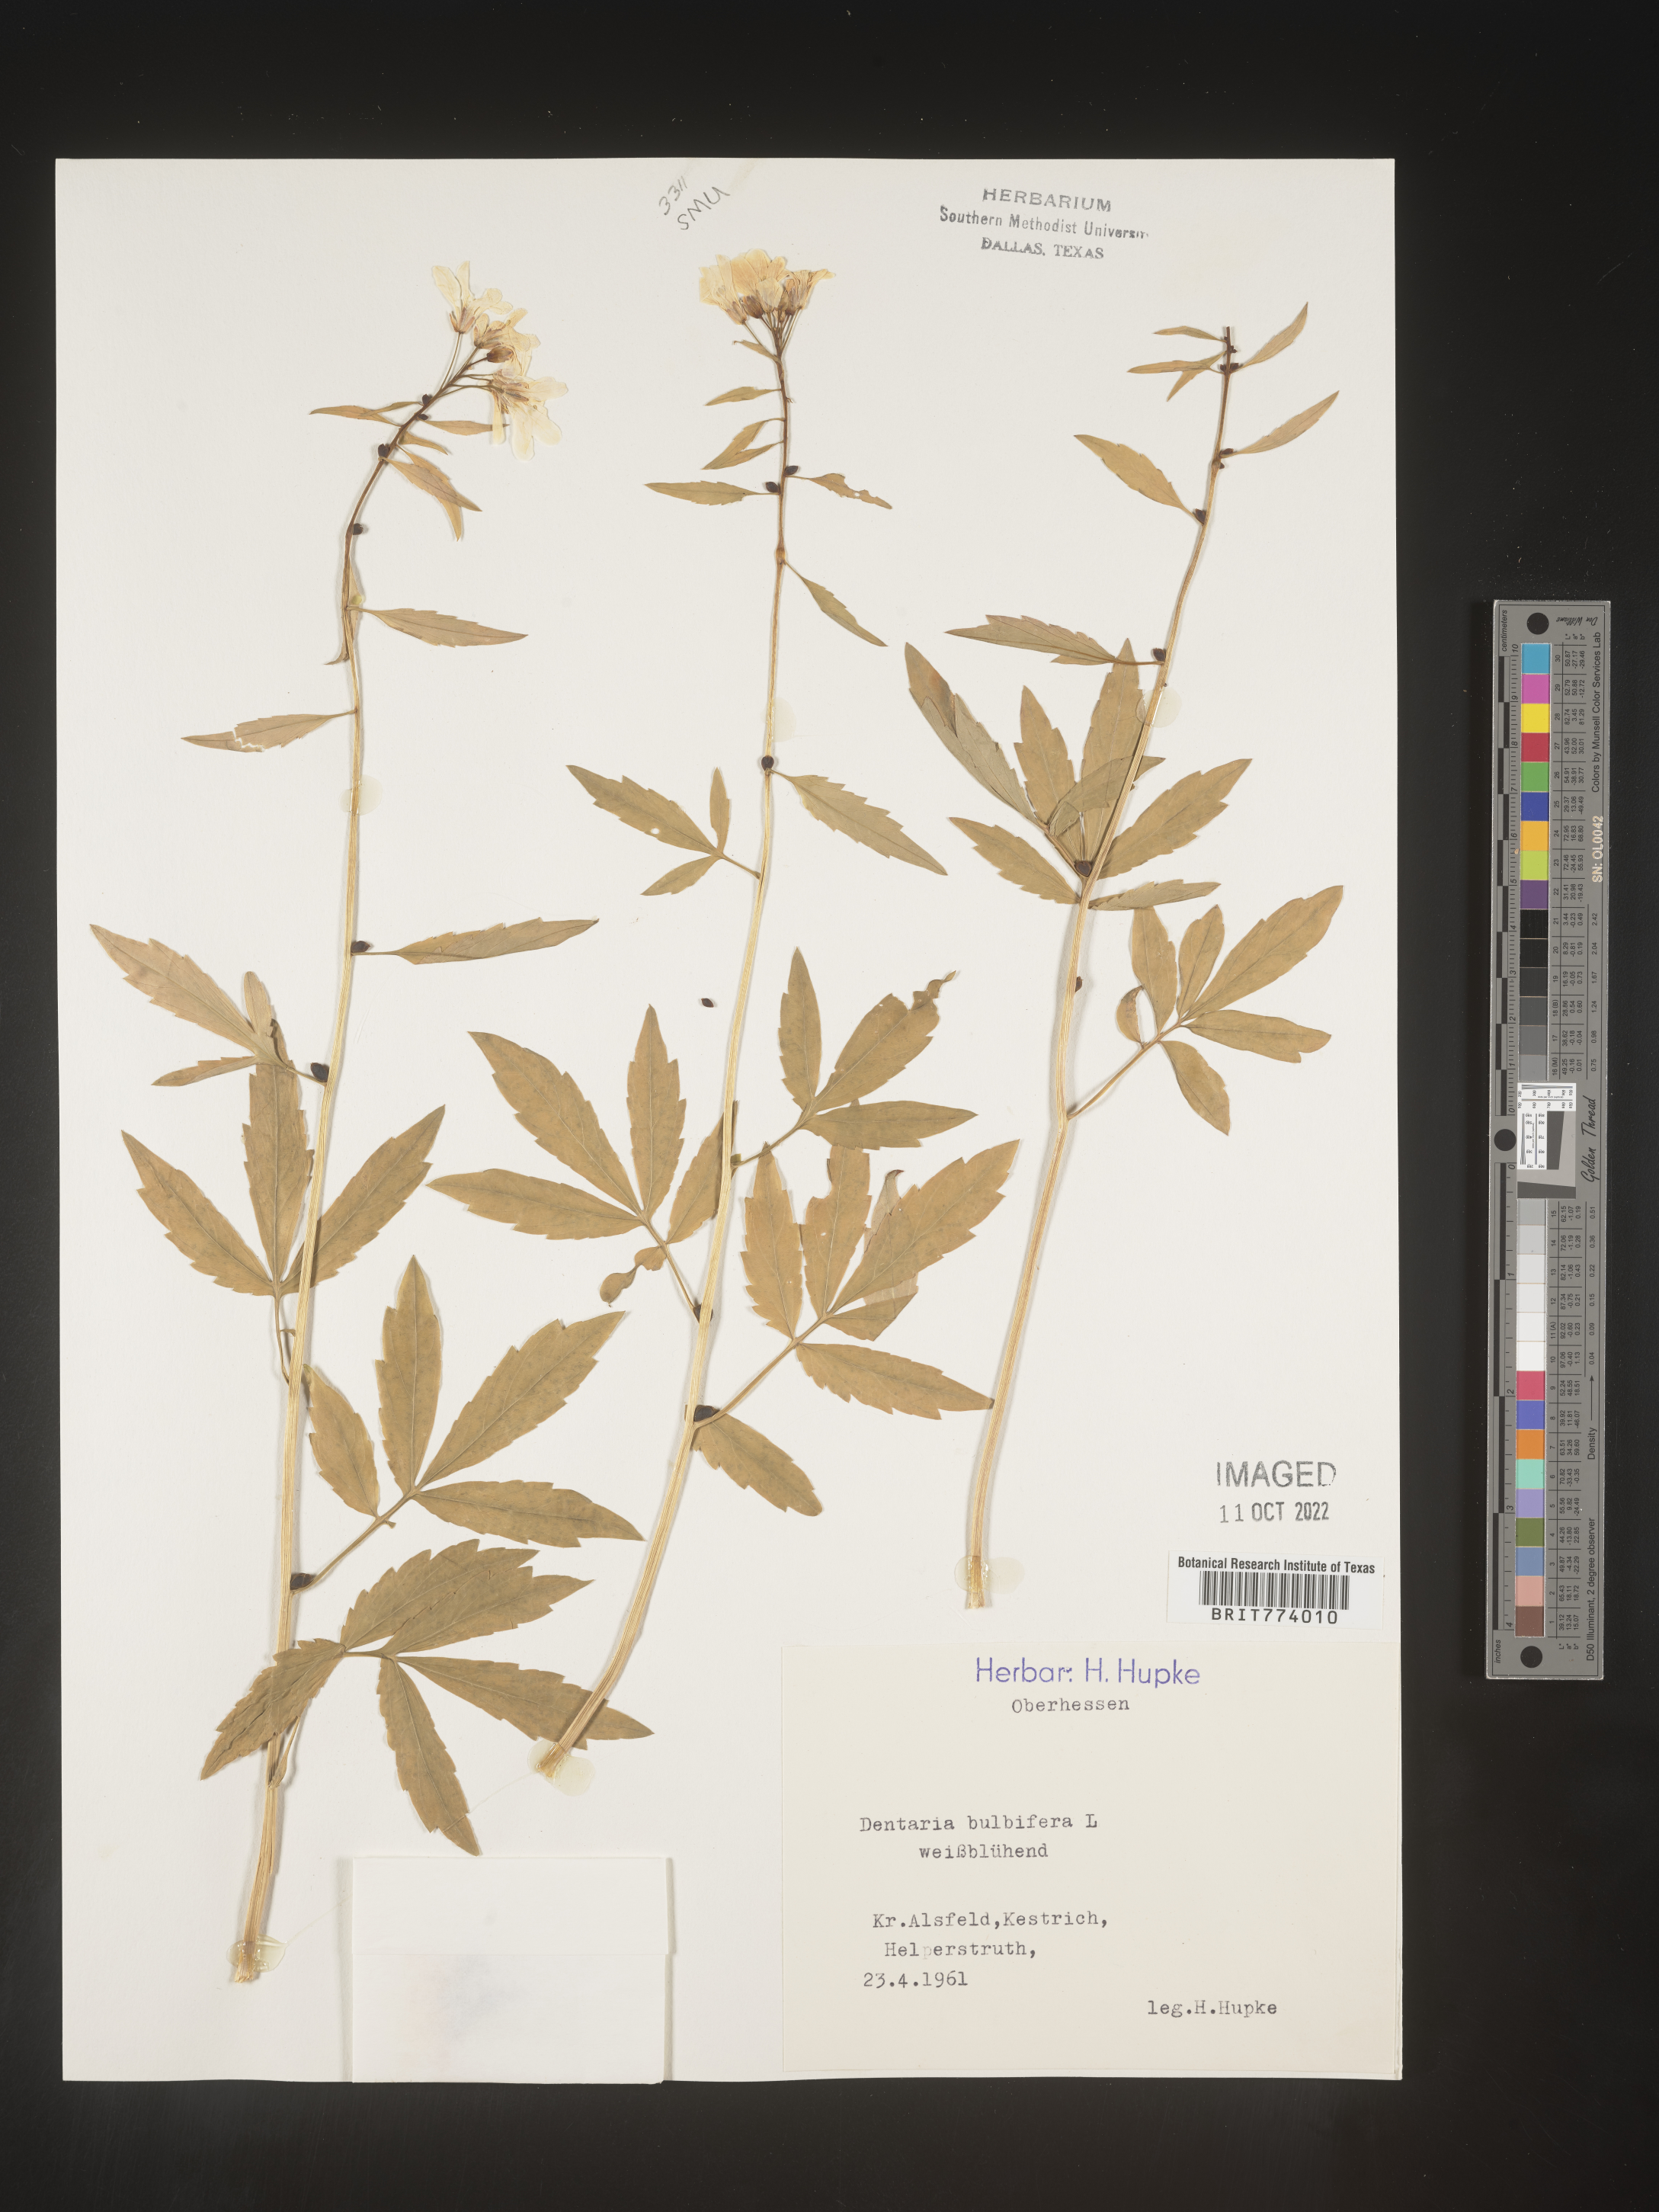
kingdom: Plantae
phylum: Tracheophyta
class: Magnoliopsida
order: Brassicales
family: Brassicaceae
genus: Cardamine
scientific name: Cardamine
